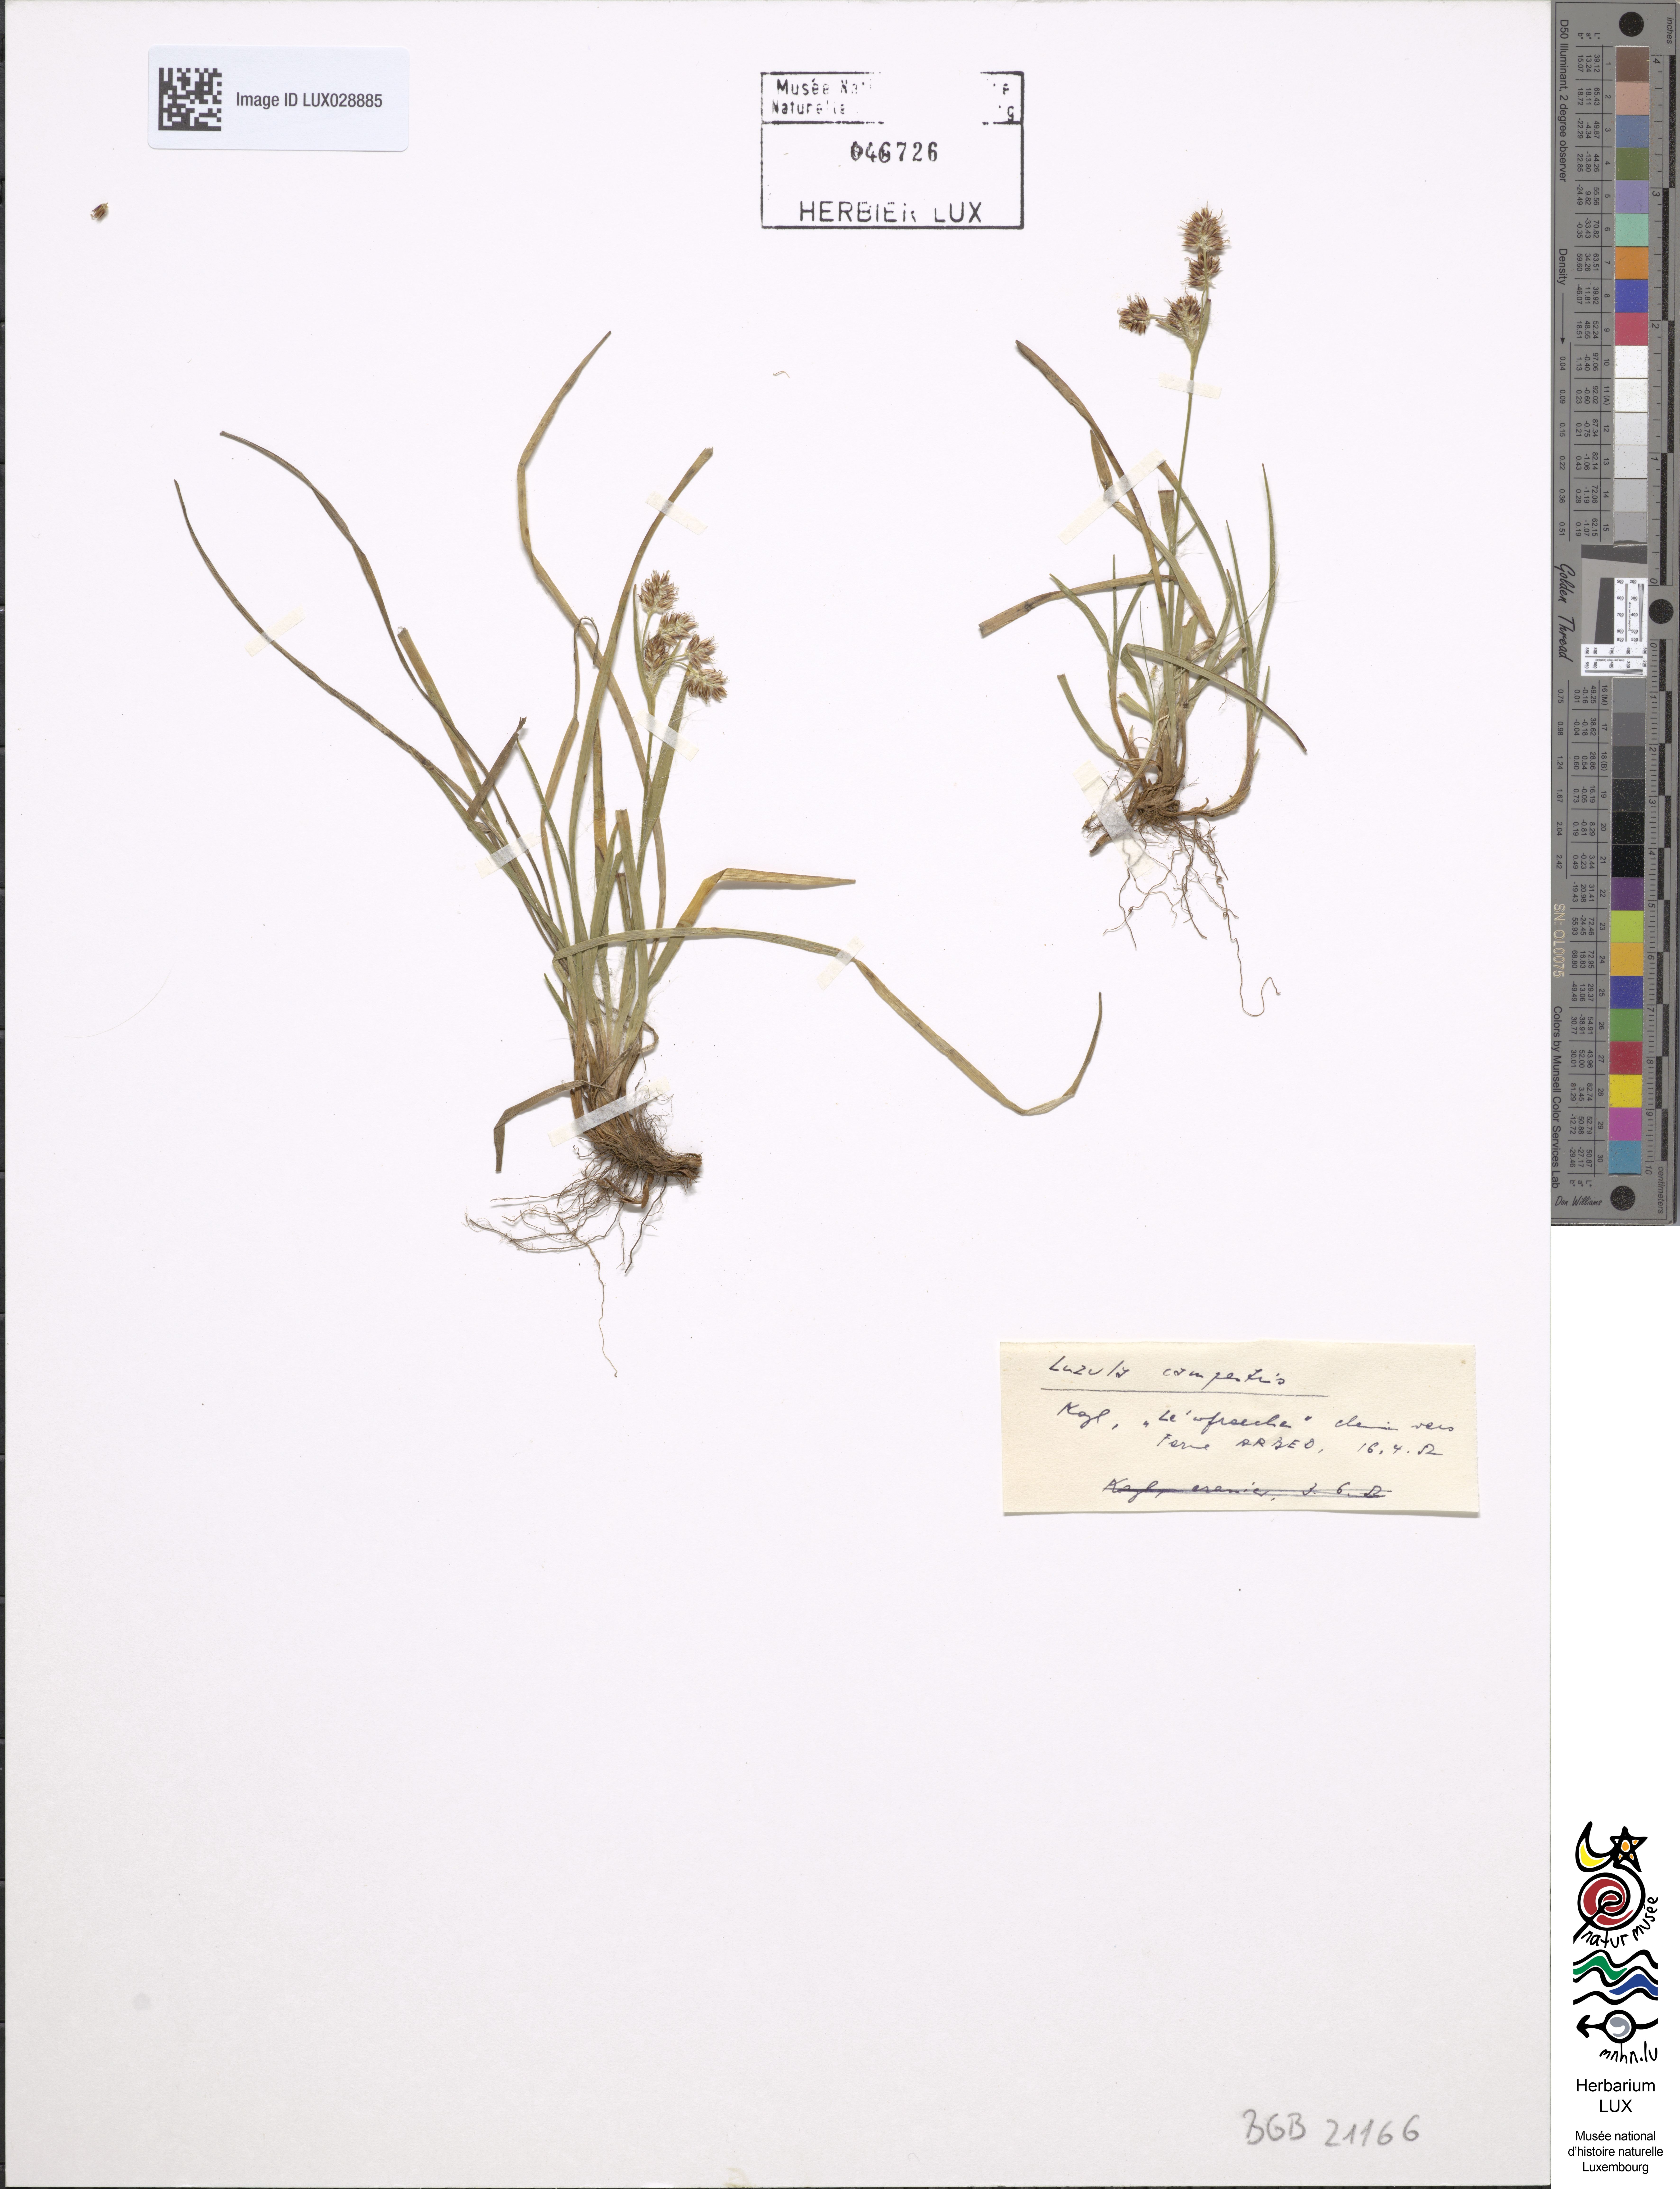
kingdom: Plantae
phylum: Tracheophyta
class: Liliopsida
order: Poales
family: Juncaceae
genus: Luzula
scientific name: Luzula campestris
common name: Field wood-rush
